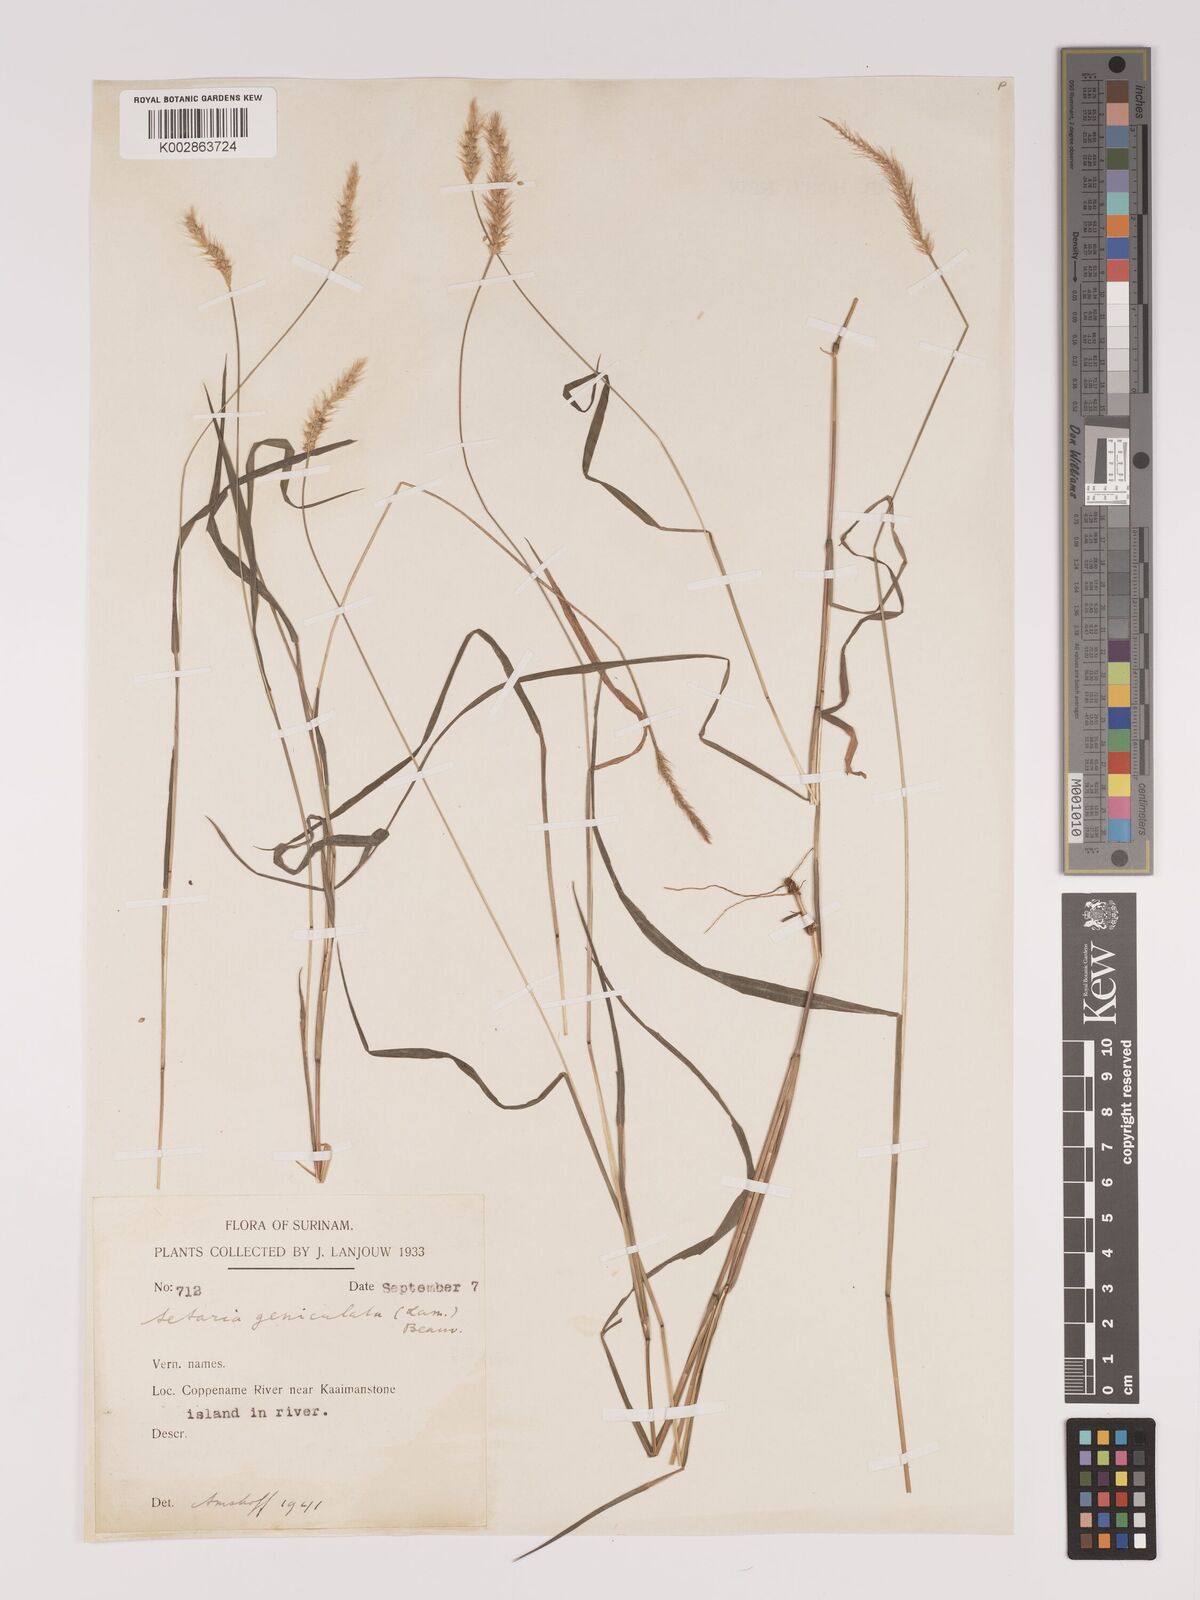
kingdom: Plantae
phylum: Tracheophyta
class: Liliopsida
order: Poales
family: Poaceae
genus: Setaria
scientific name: Setaria parviflora
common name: Knotroot bristle-grass
